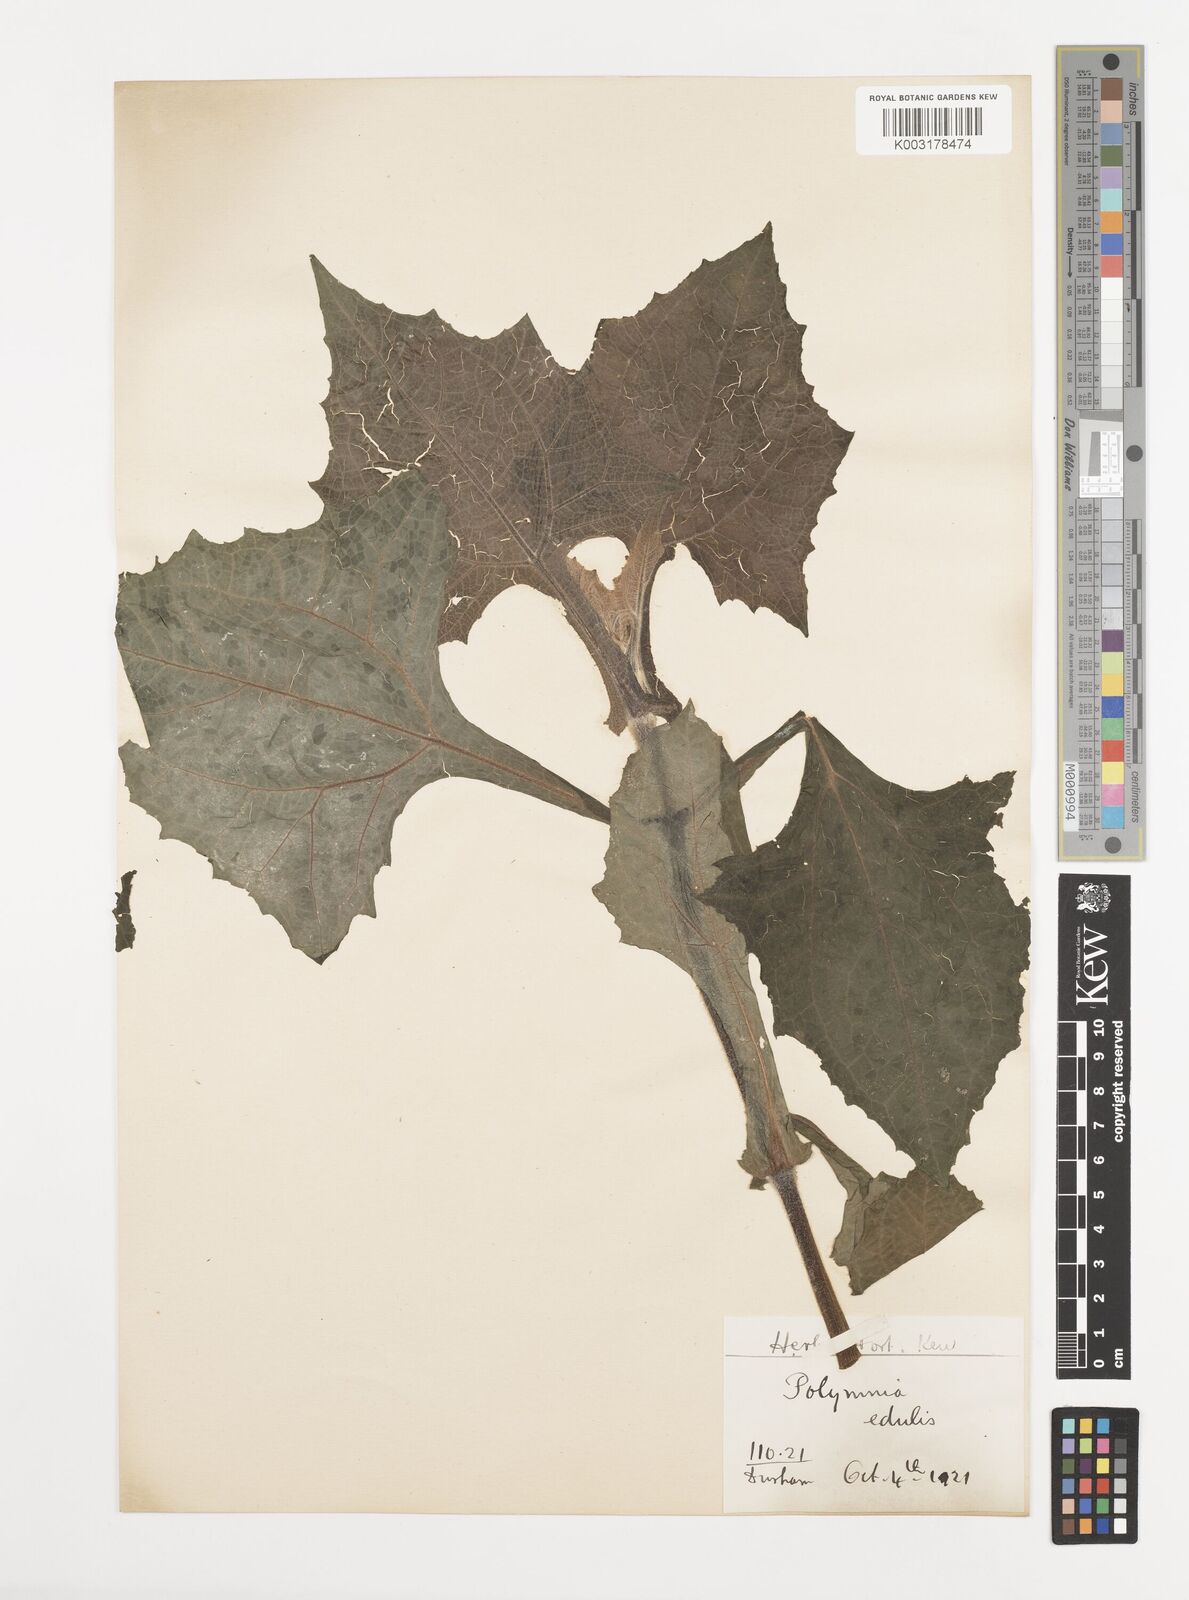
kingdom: Plantae
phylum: Tracheophyta
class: Magnoliopsida
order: Asterales
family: Asteraceae
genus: Smallanthus
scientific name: Smallanthus
